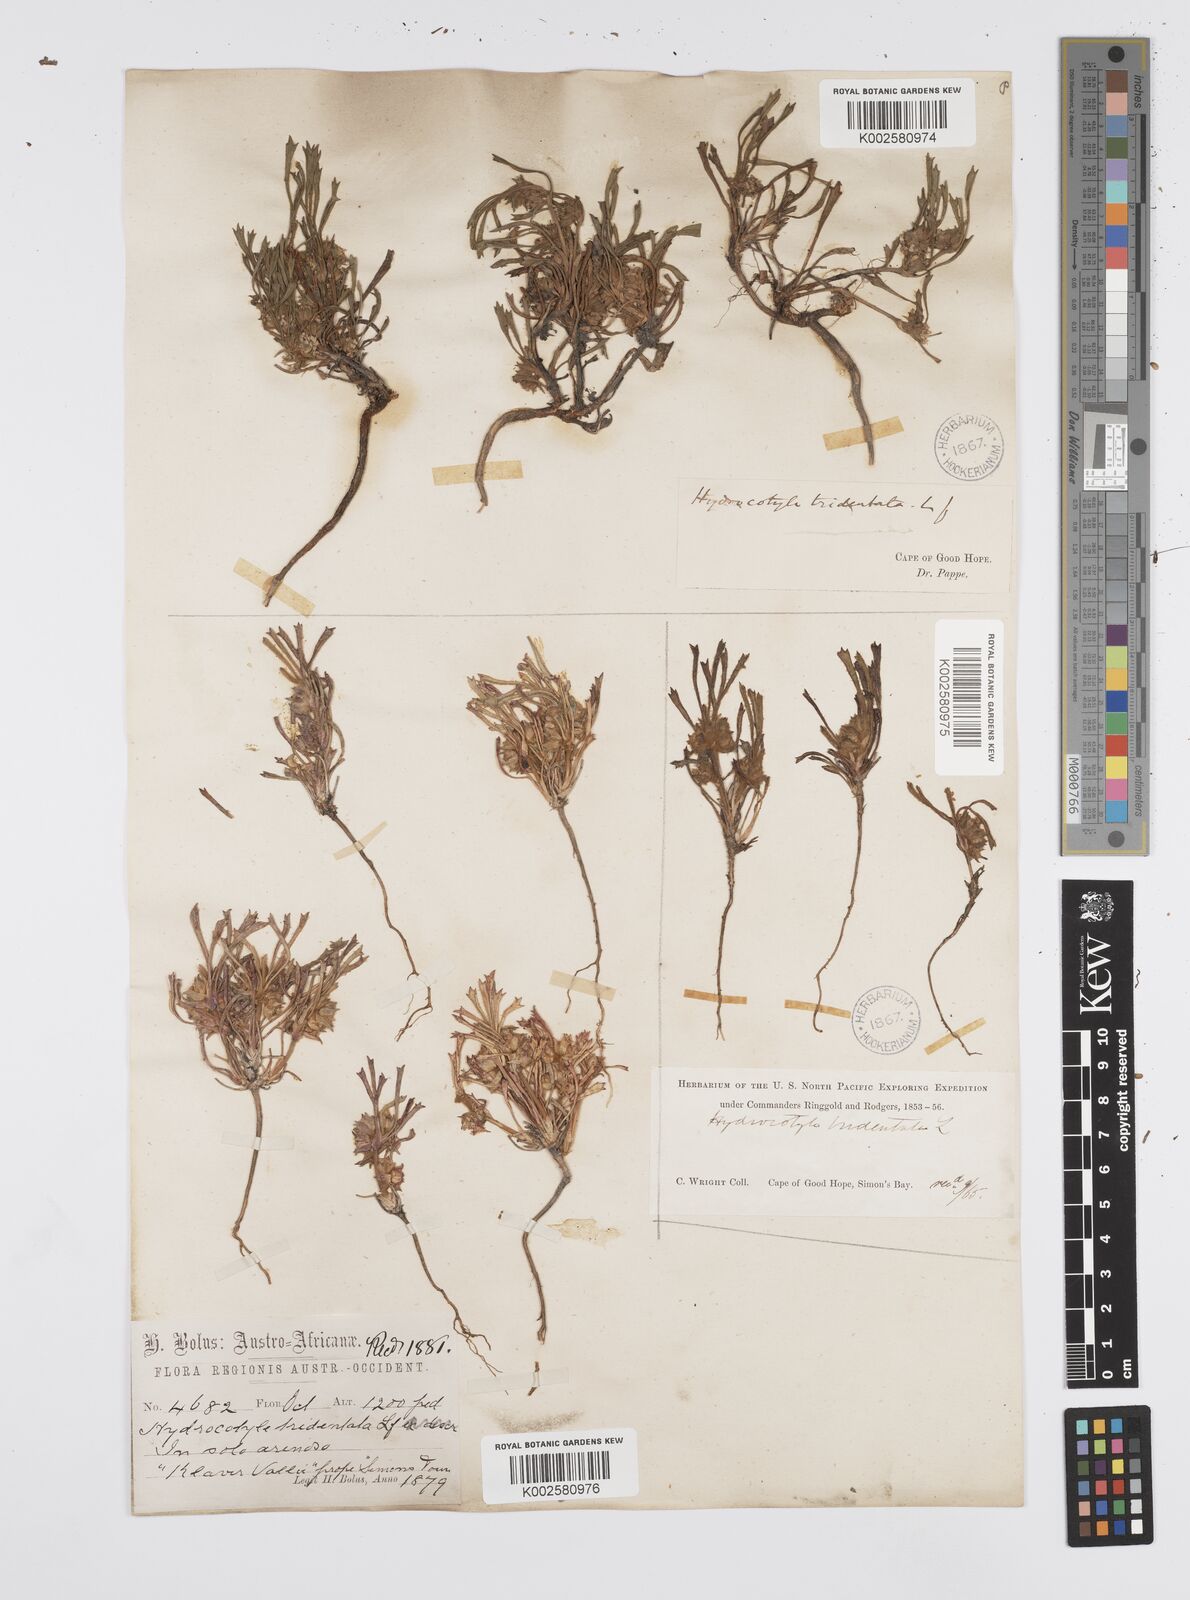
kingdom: Plantae
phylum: Tracheophyta
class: Magnoliopsida
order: Apiales
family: Apiaceae
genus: Centella
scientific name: Centella tridentata
